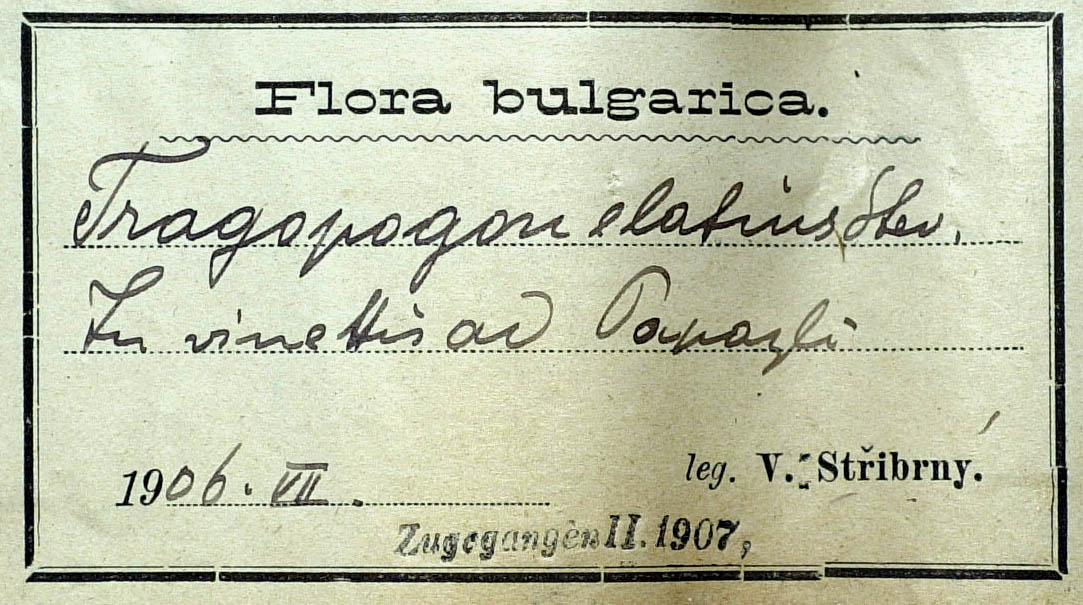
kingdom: Plantae
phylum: Tracheophyta
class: Magnoliopsida
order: Asterales
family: Asteraceae
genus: Tragopogon
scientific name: Tragopogon stribrnyi
